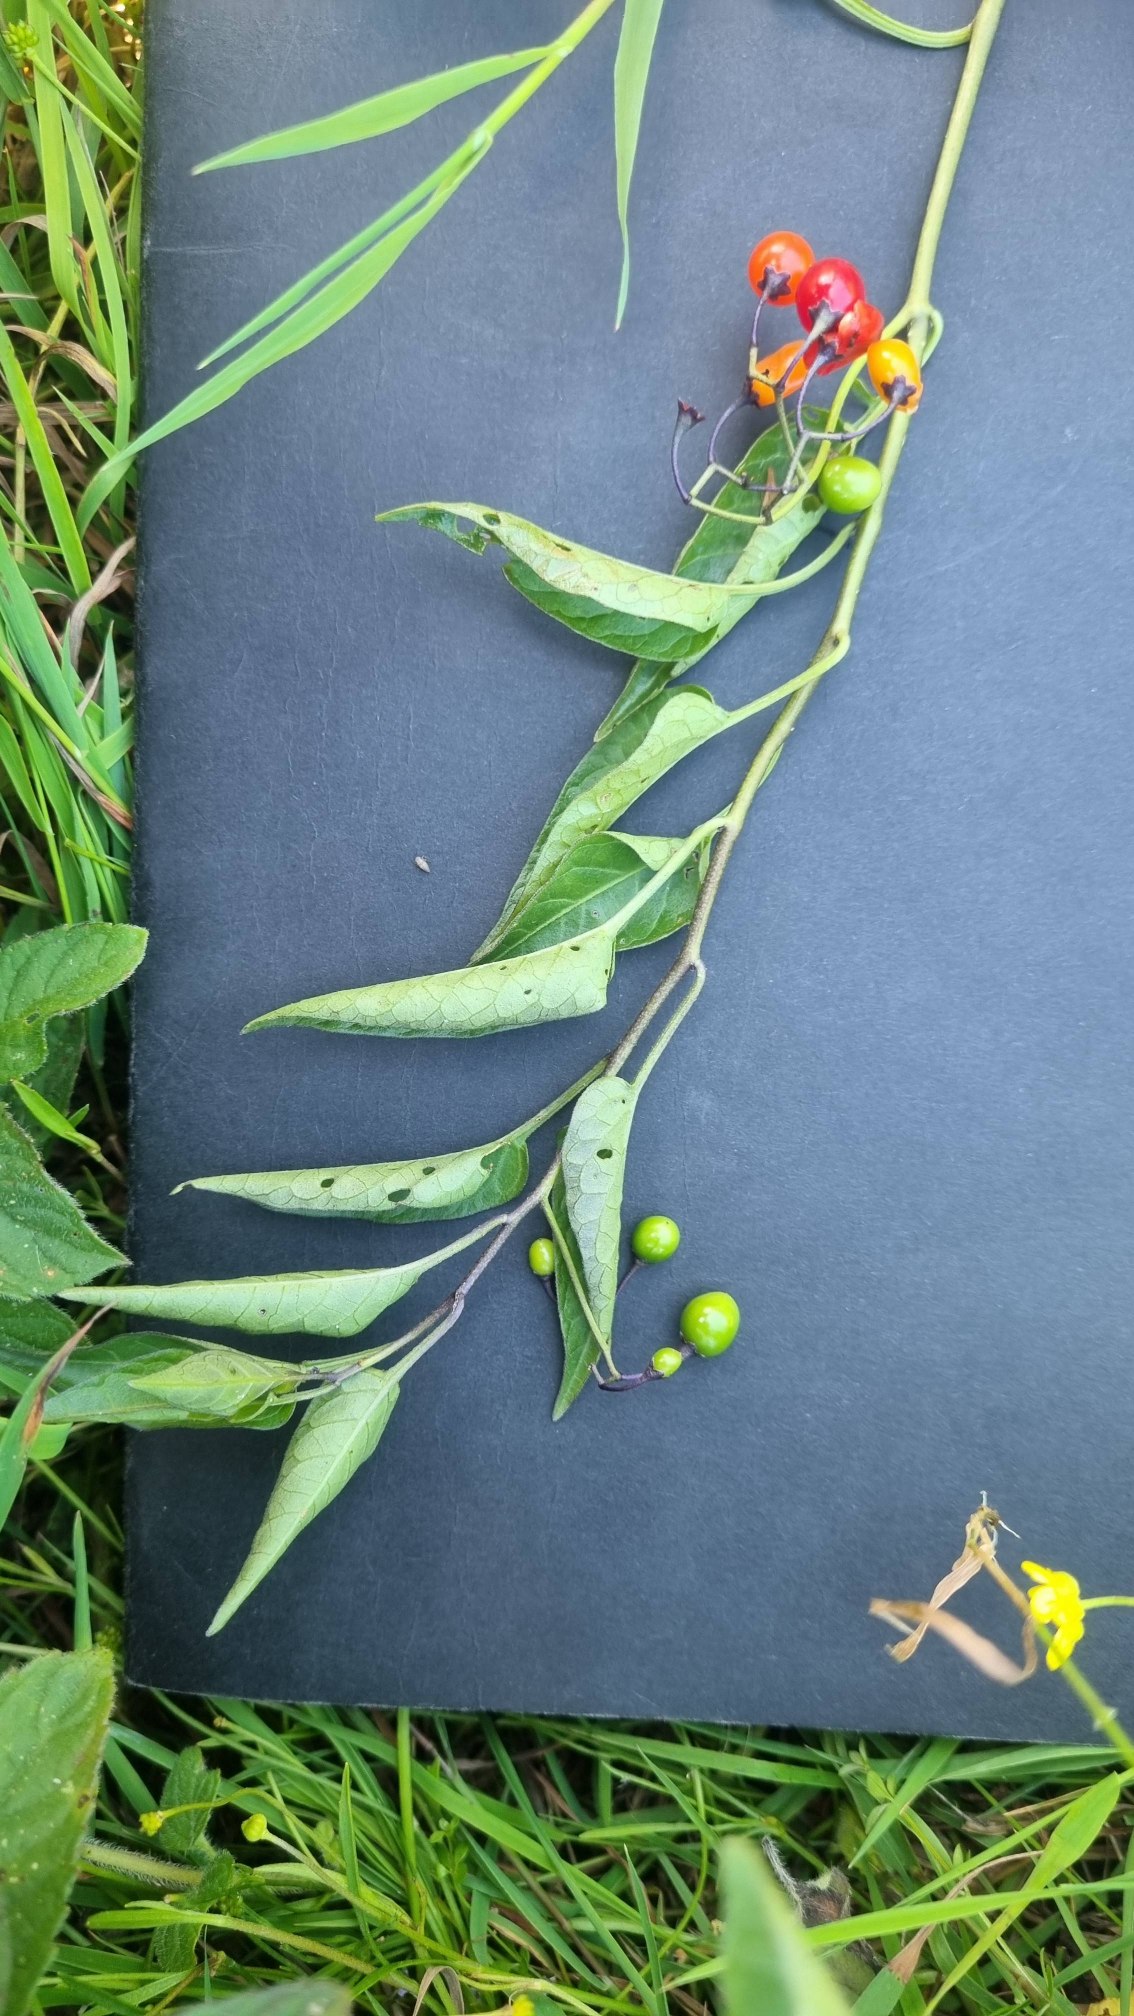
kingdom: Plantae
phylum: Tracheophyta
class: Magnoliopsida
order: Solanales
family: Solanaceae
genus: Solanum
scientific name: Solanum dulcamara
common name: Bittersød natskygge
